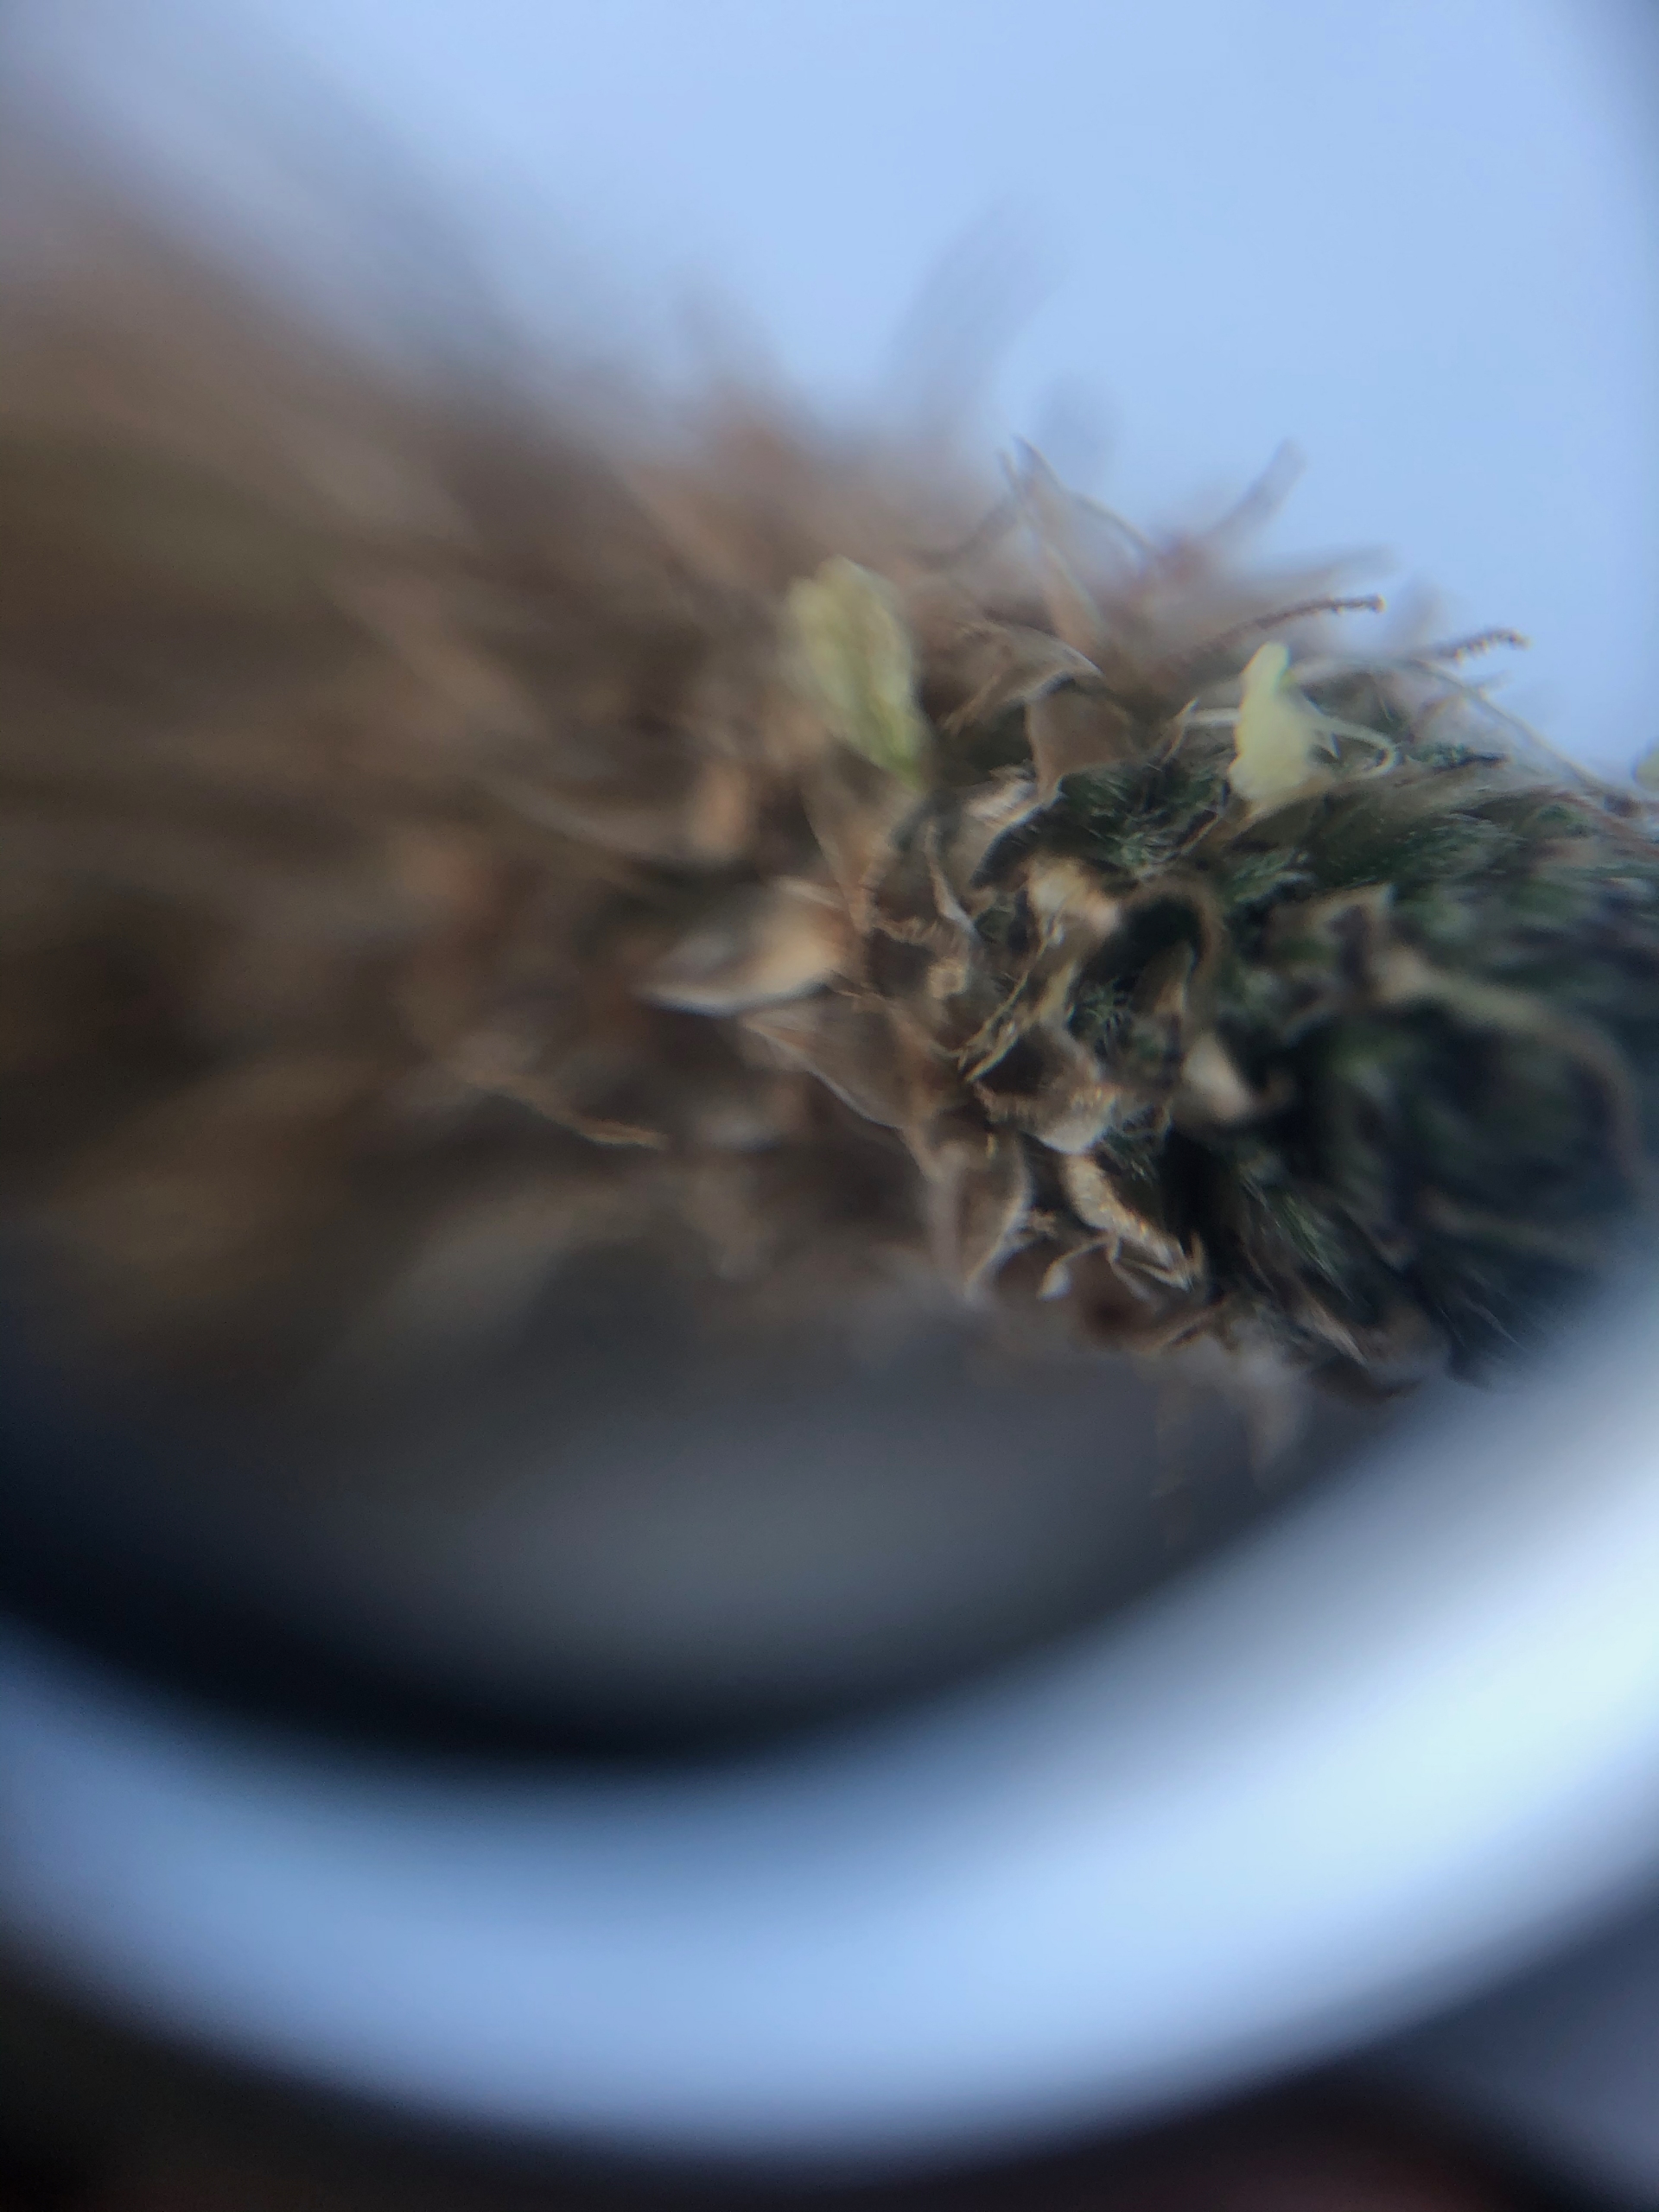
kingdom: Plantae
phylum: Tracheophyta
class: Magnoliopsida
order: Lamiales
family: Plantaginaceae
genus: Plantago
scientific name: Plantago lanceolata
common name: Lancet-vejbred
